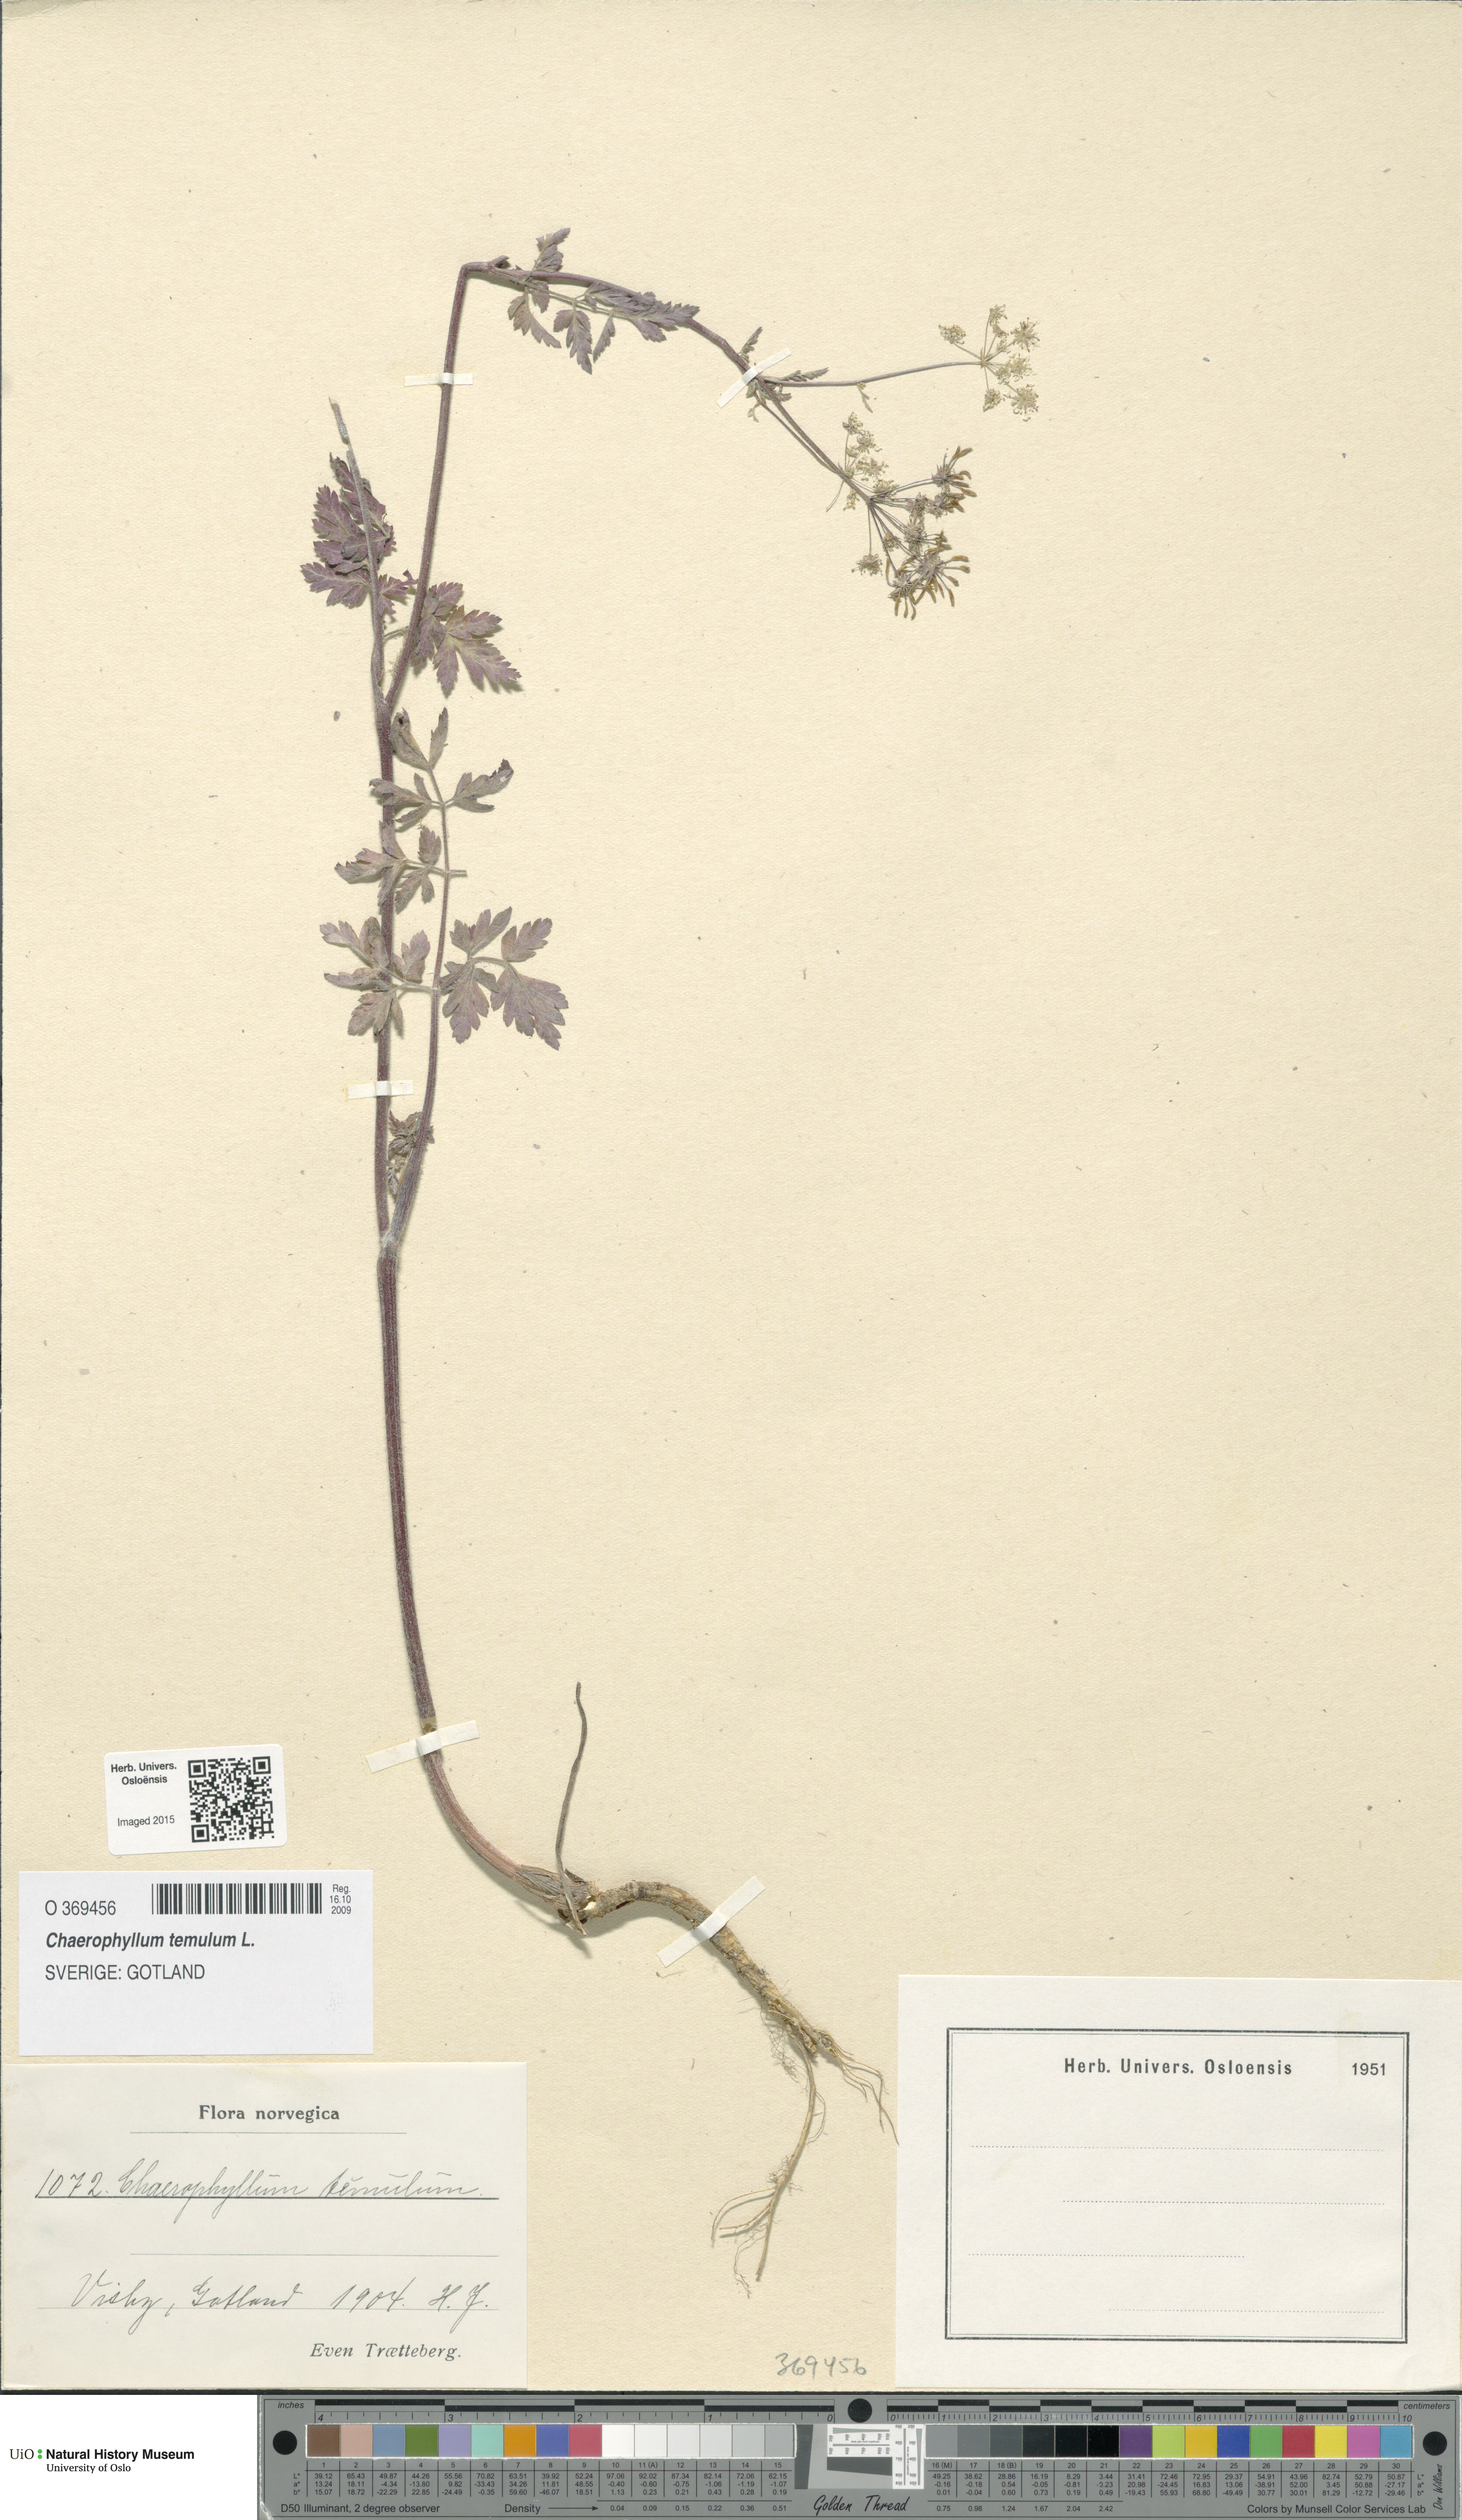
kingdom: Plantae
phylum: Tracheophyta
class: Magnoliopsida
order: Apiales
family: Apiaceae
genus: Chaerophyllum
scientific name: Chaerophyllum temulum
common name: Rough chervil
